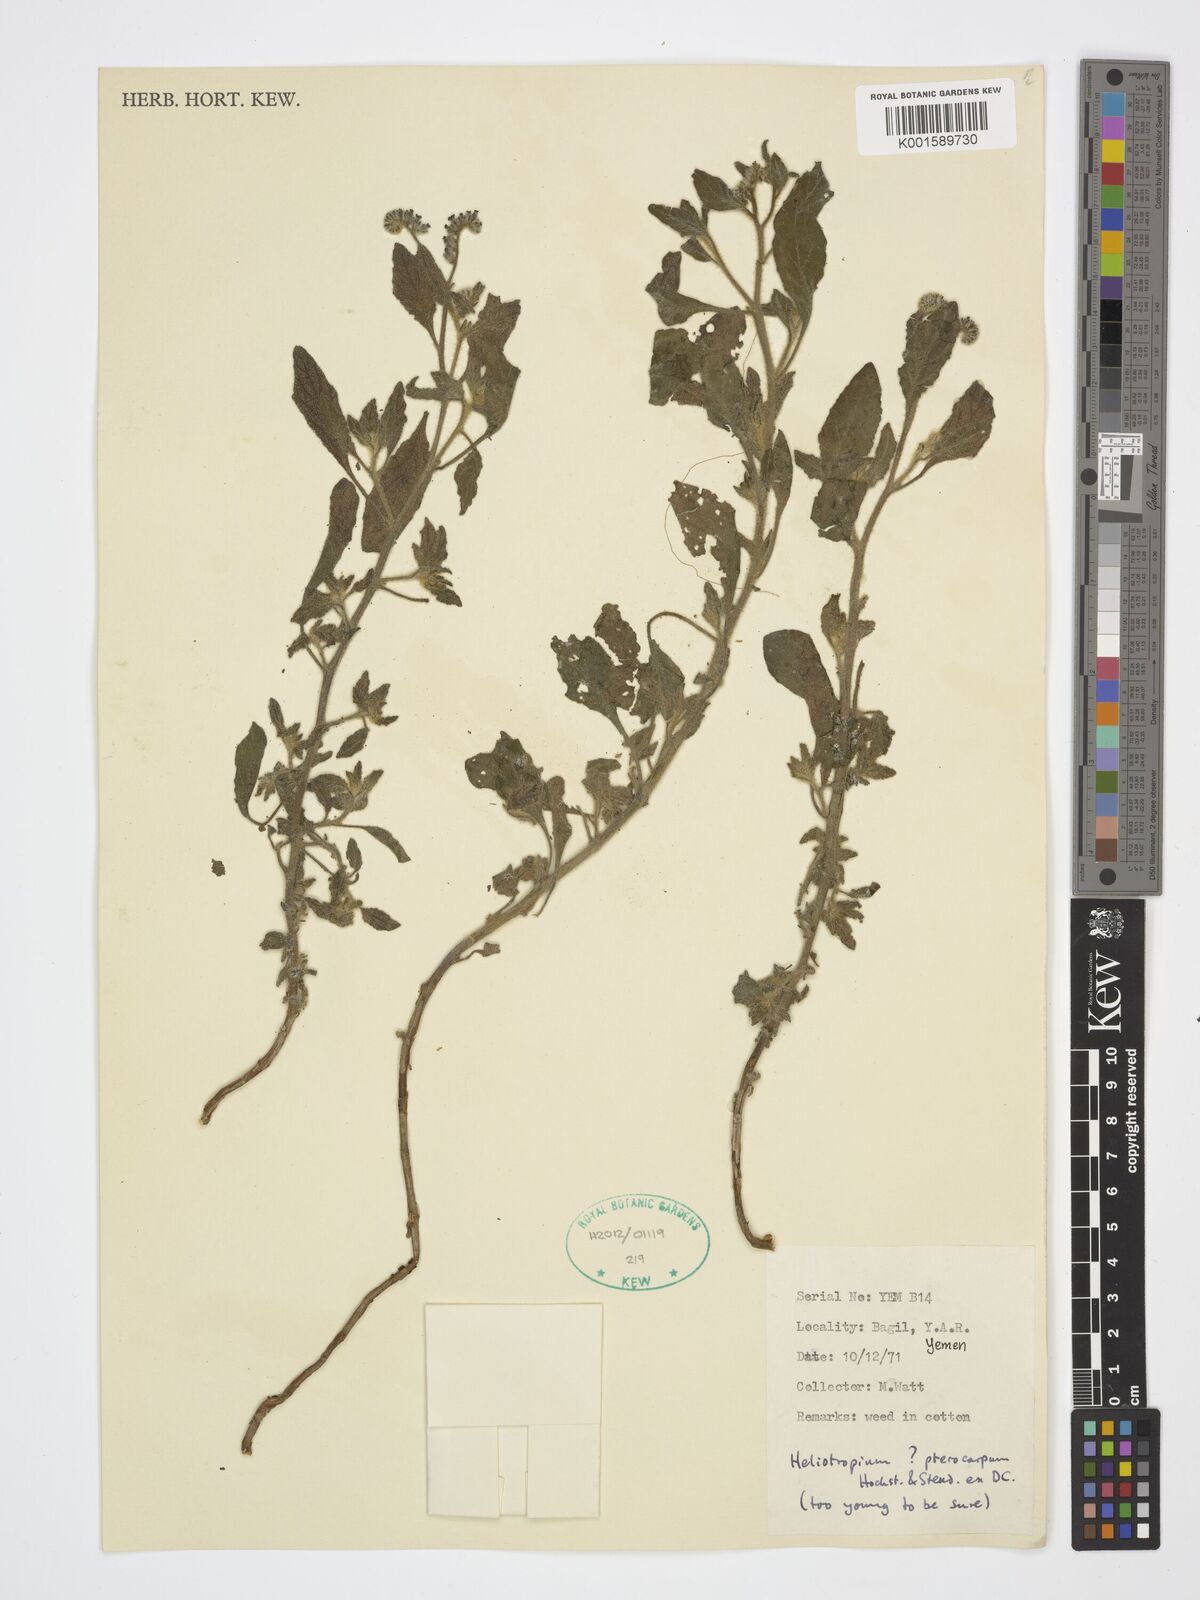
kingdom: Plantae
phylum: Tracheophyta
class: Magnoliopsida
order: Boraginales
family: Heliotropiaceae
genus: Heliotropium
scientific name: Heliotropium pterocarpum
